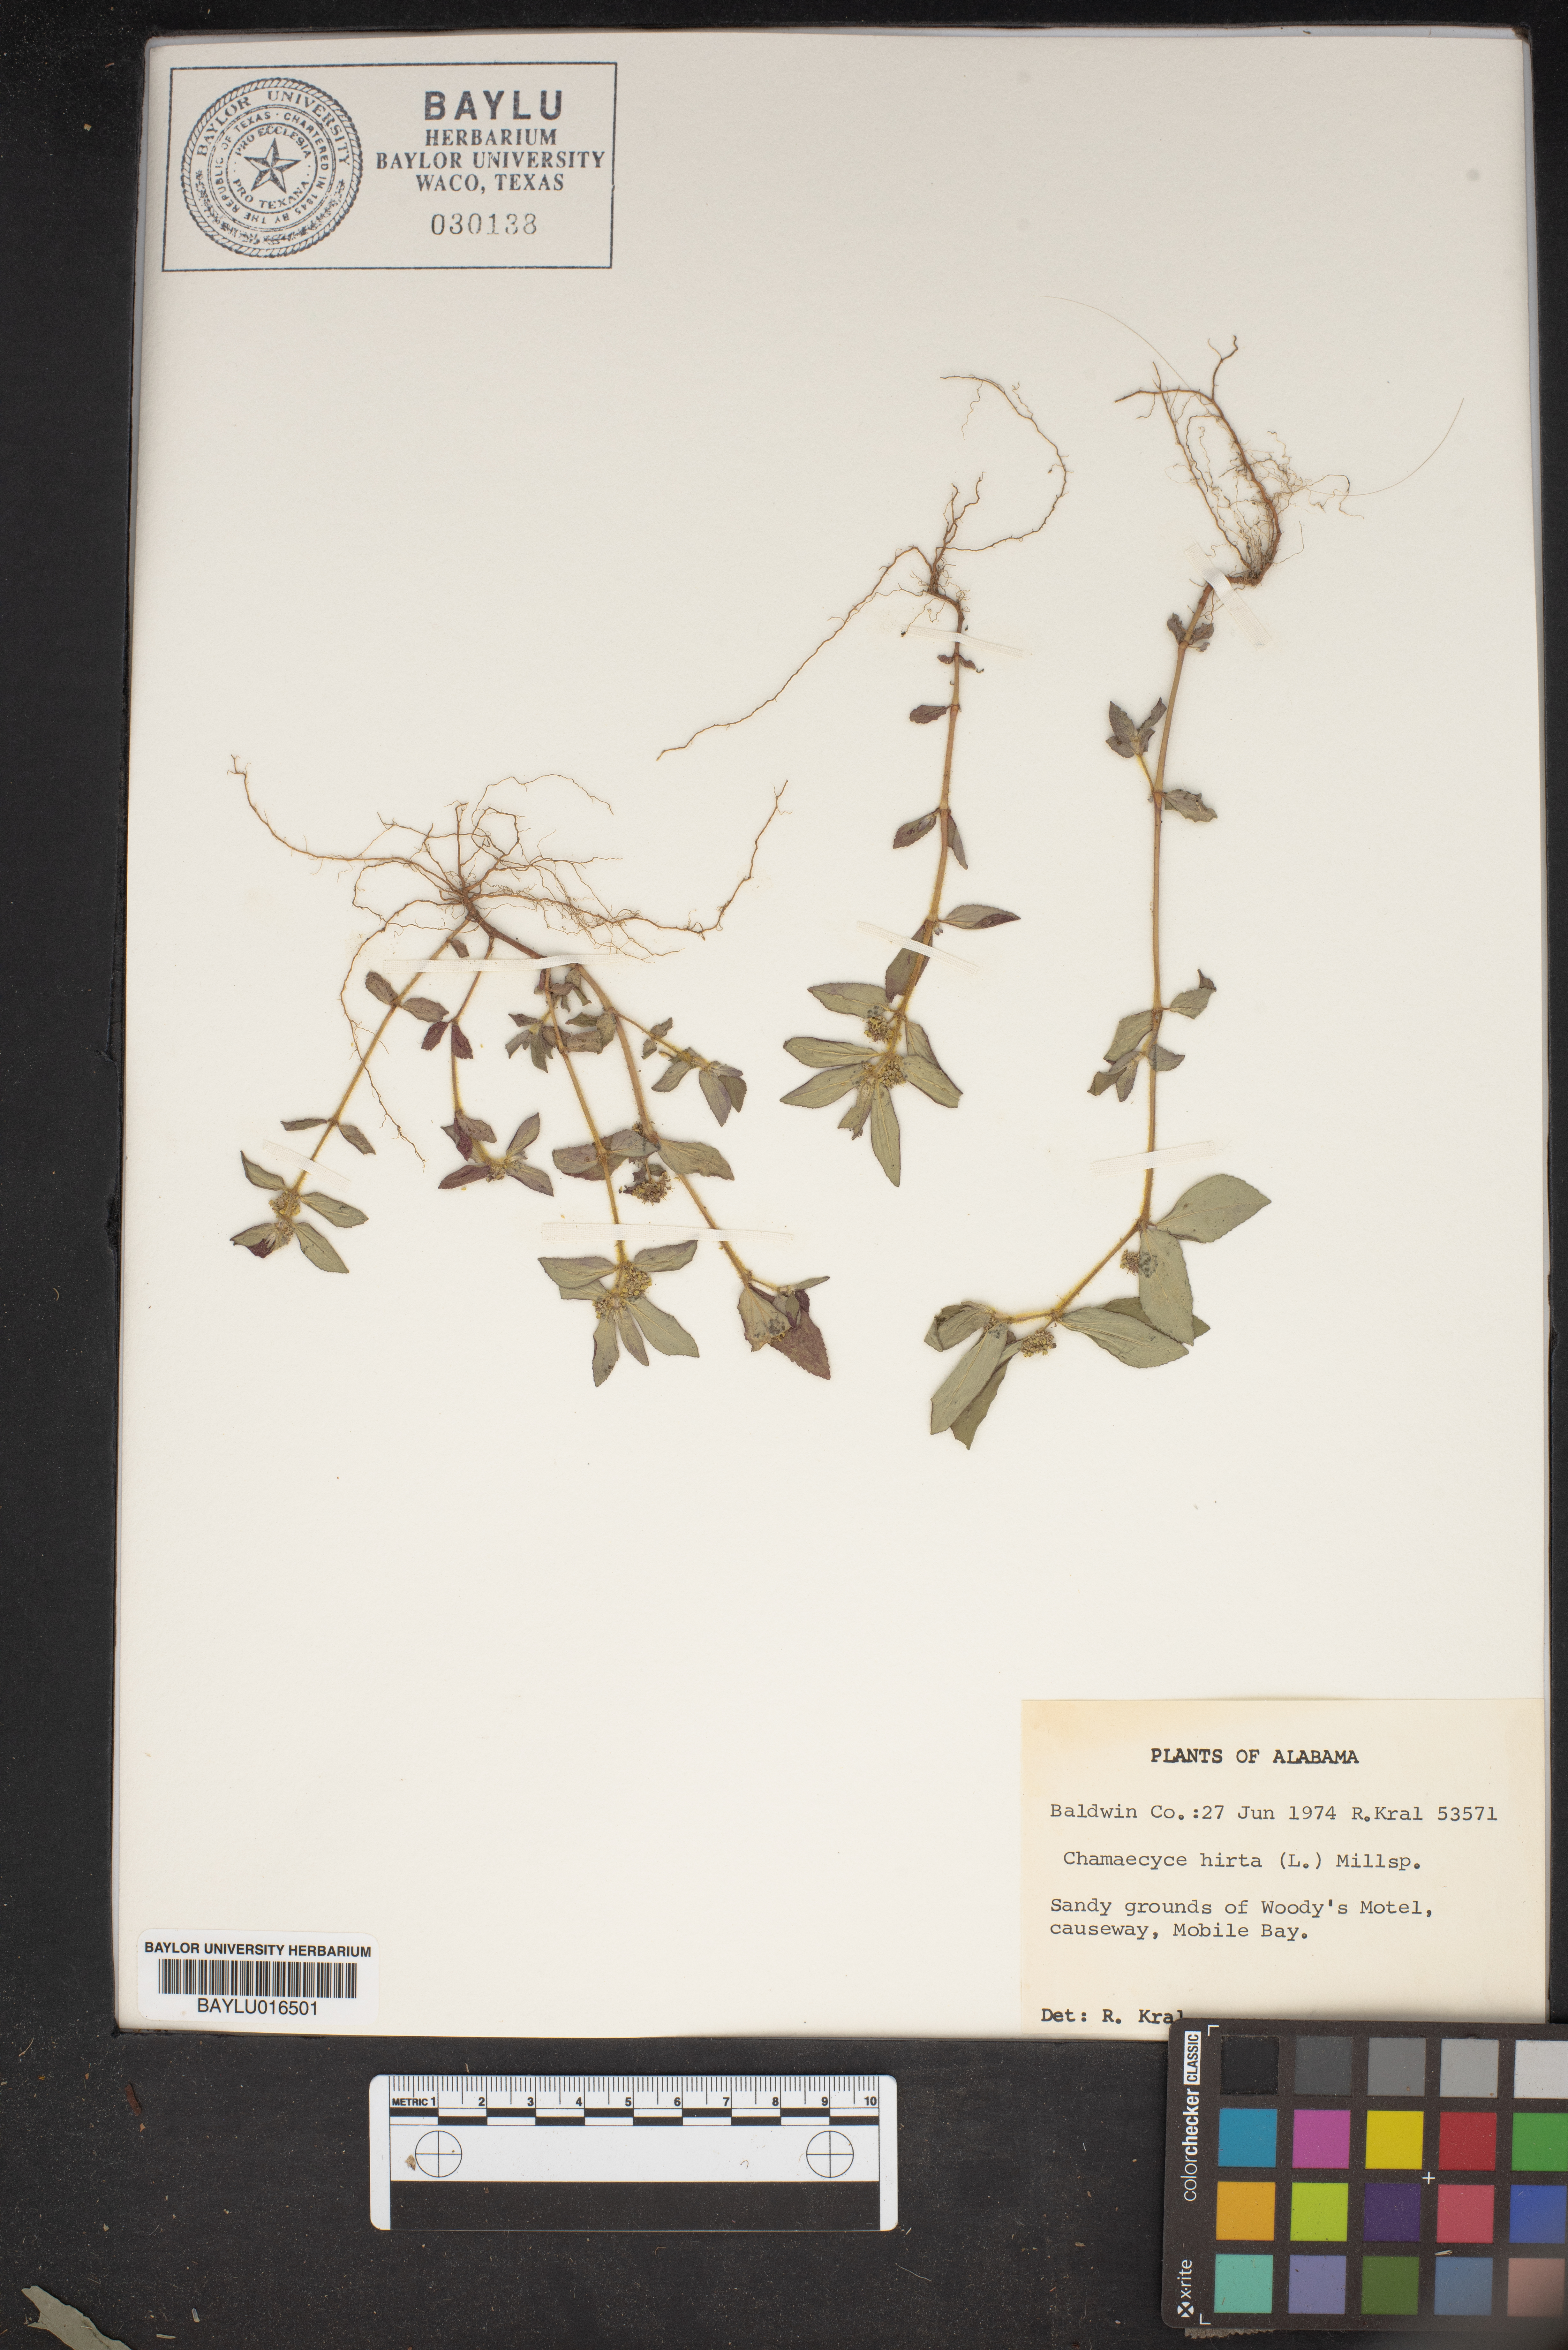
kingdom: Plantae
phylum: Tracheophyta
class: Magnoliopsida
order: Malpighiales
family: Euphorbiaceae
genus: Euphorbia
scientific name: Euphorbia hirta
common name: Pillpod sandmat
